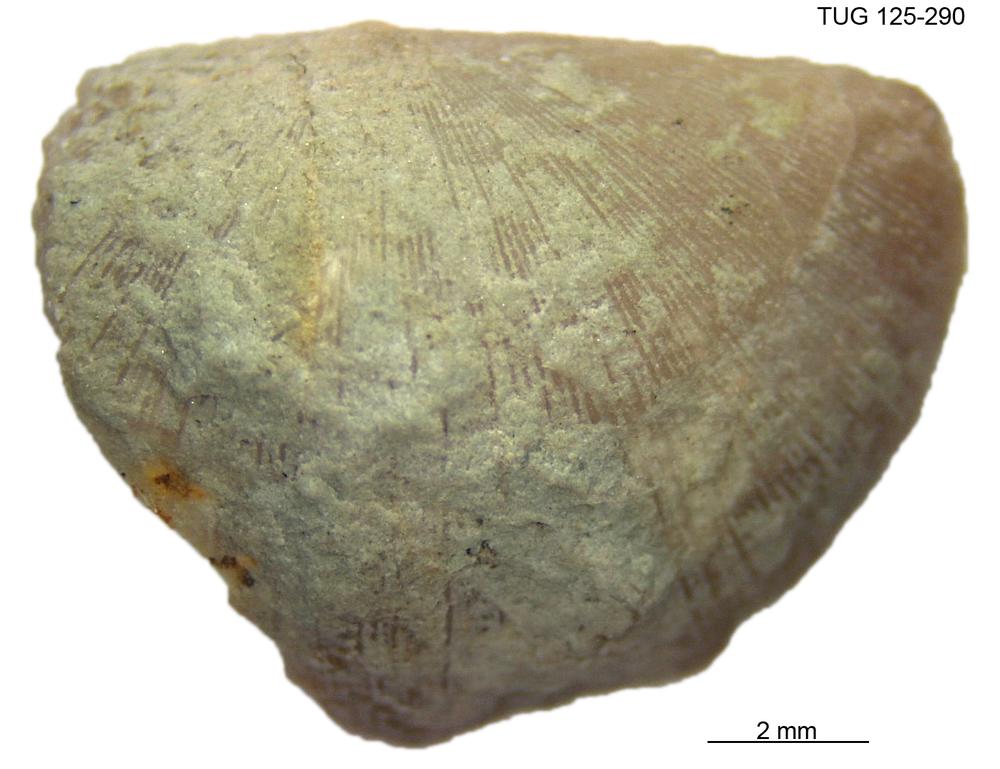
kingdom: Animalia
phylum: Brachiopoda
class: Rhynchonellata
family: Clitambonitidae
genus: Clinambon
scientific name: Clinambon anomalus
